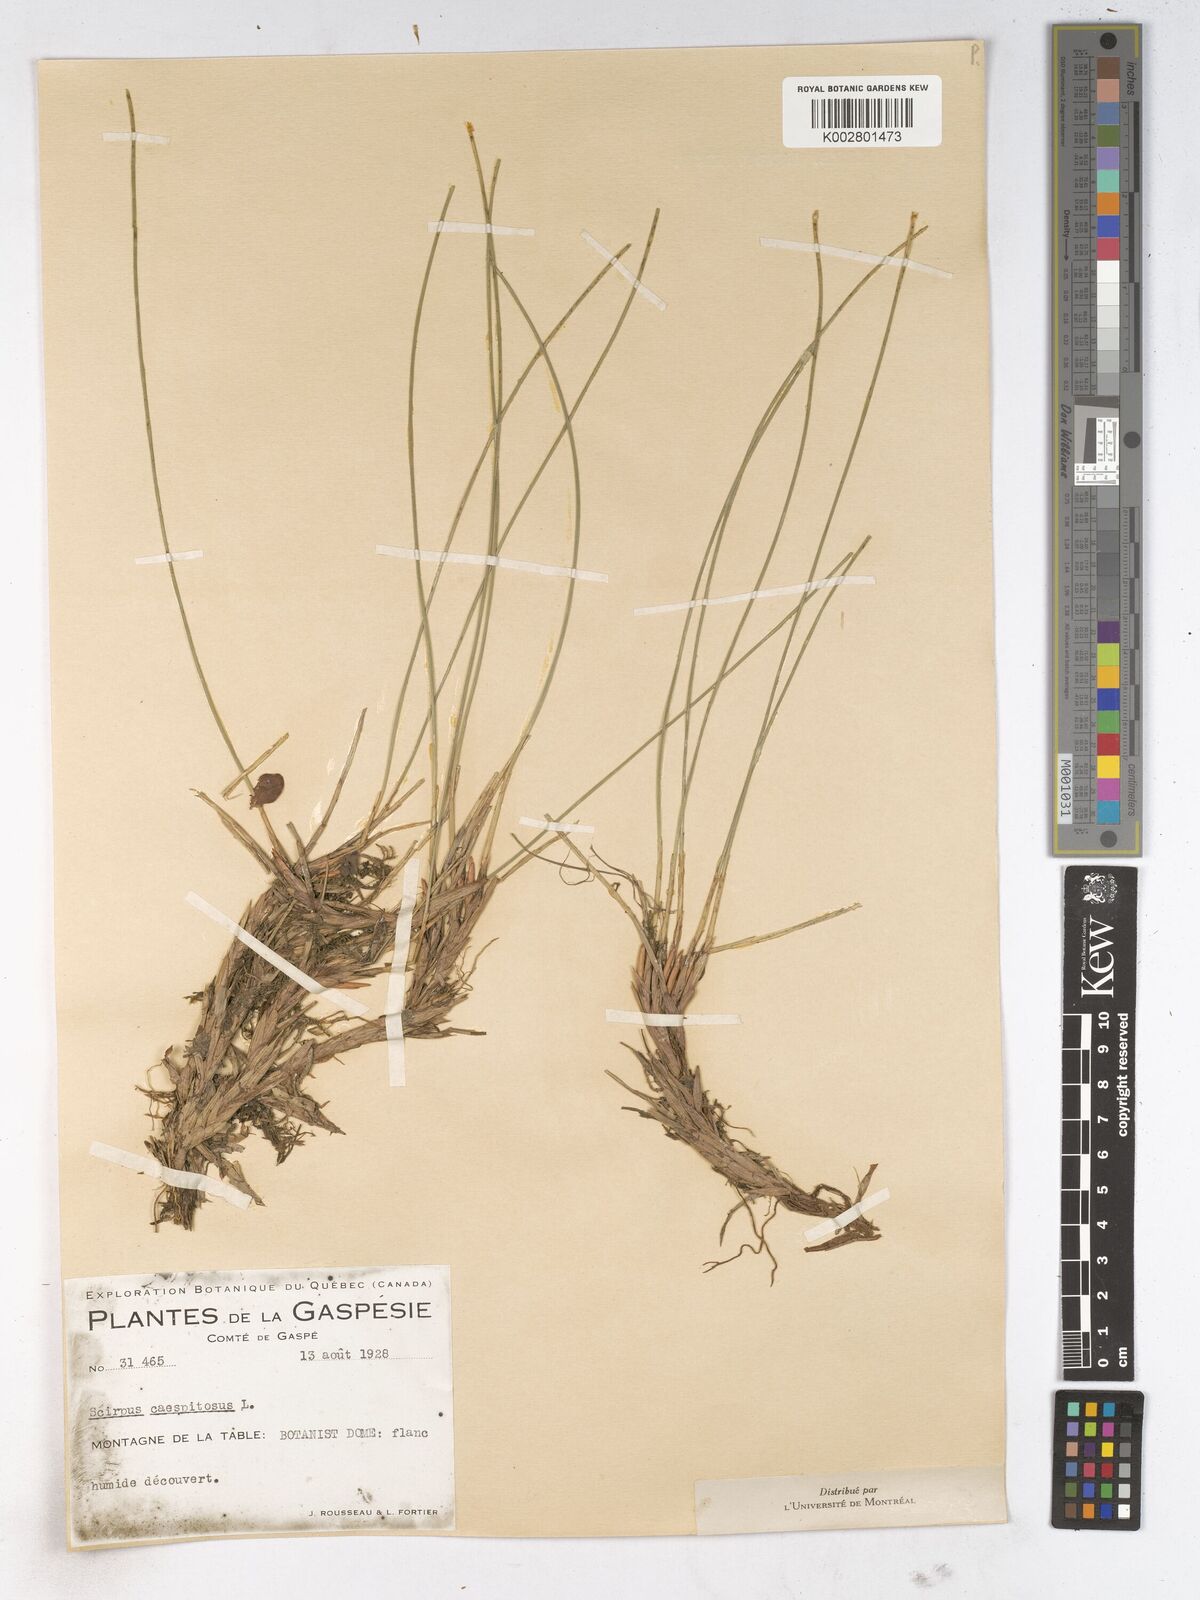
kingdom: Plantae
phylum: Tracheophyta
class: Liliopsida
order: Poales
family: Cyperaceae
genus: Trichophorum
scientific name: Trichophorum cespitosum
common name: Cespitose bulrush
